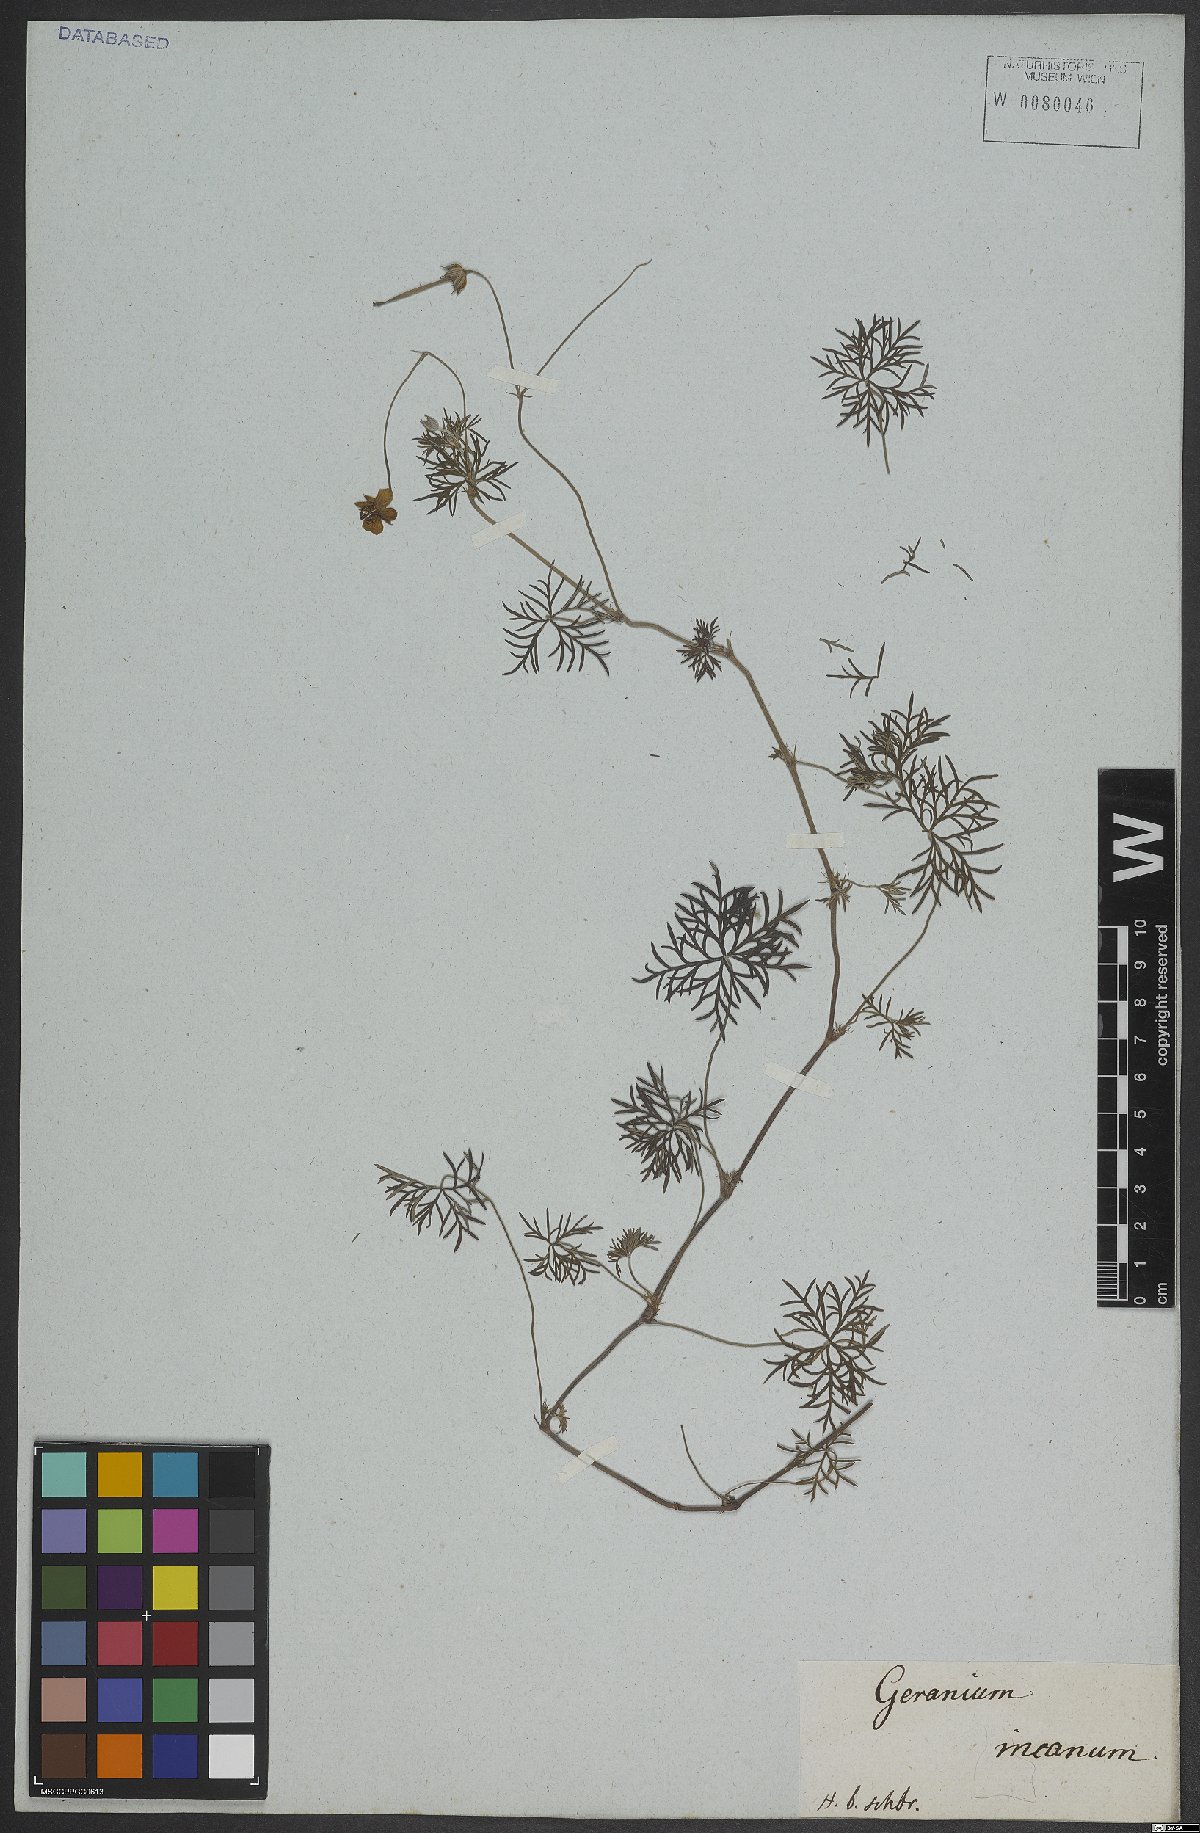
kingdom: Plantae
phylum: Tracheophyta
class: Magnoliopsida
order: Geraniales
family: Geraniaceae
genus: Geranium
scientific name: Geranium incanum
